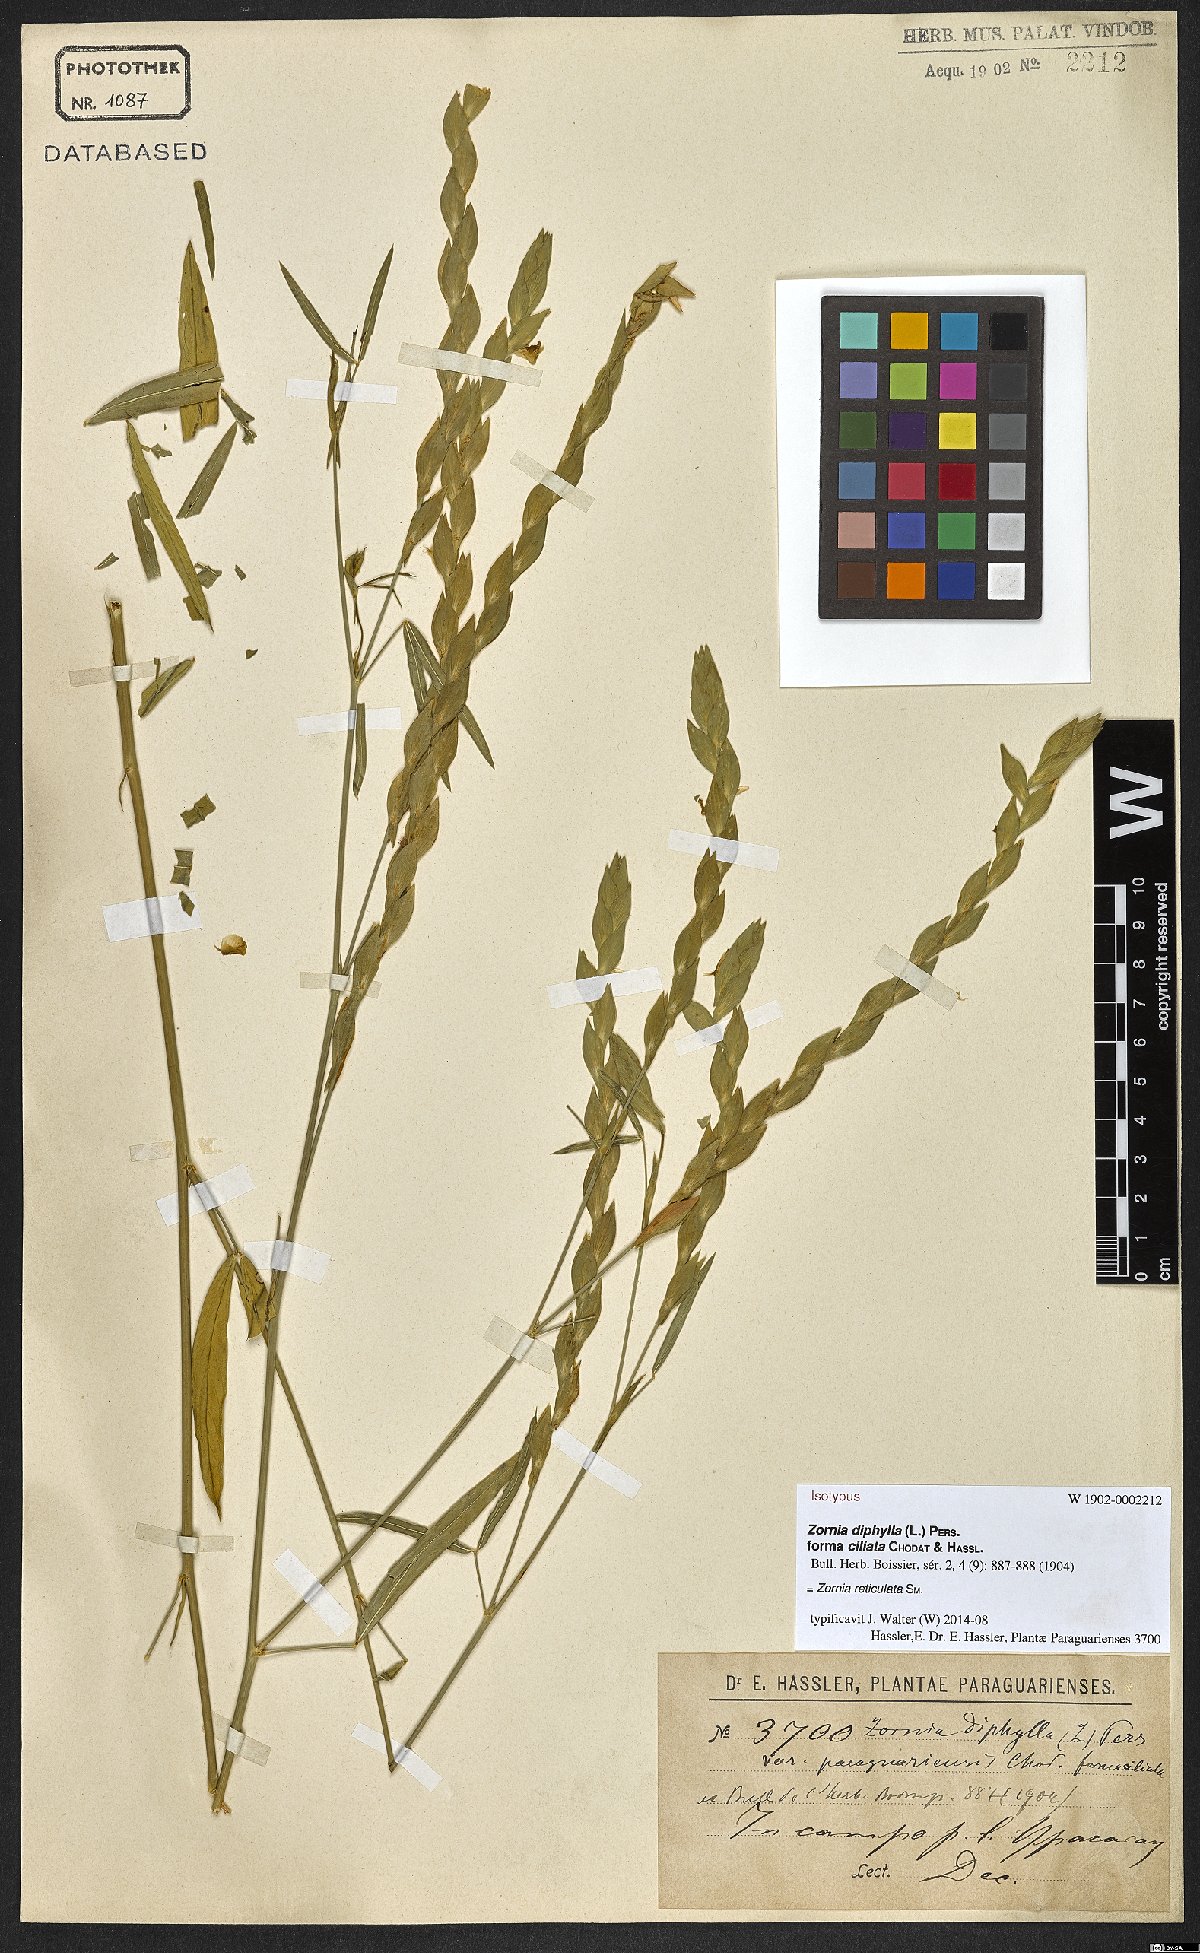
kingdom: Plantae
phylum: Tracheophyta
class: Magnoliopsida
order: Fabales
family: Fabaceae
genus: Zornia
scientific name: Zornia reticulata
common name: Reticulate viperina
